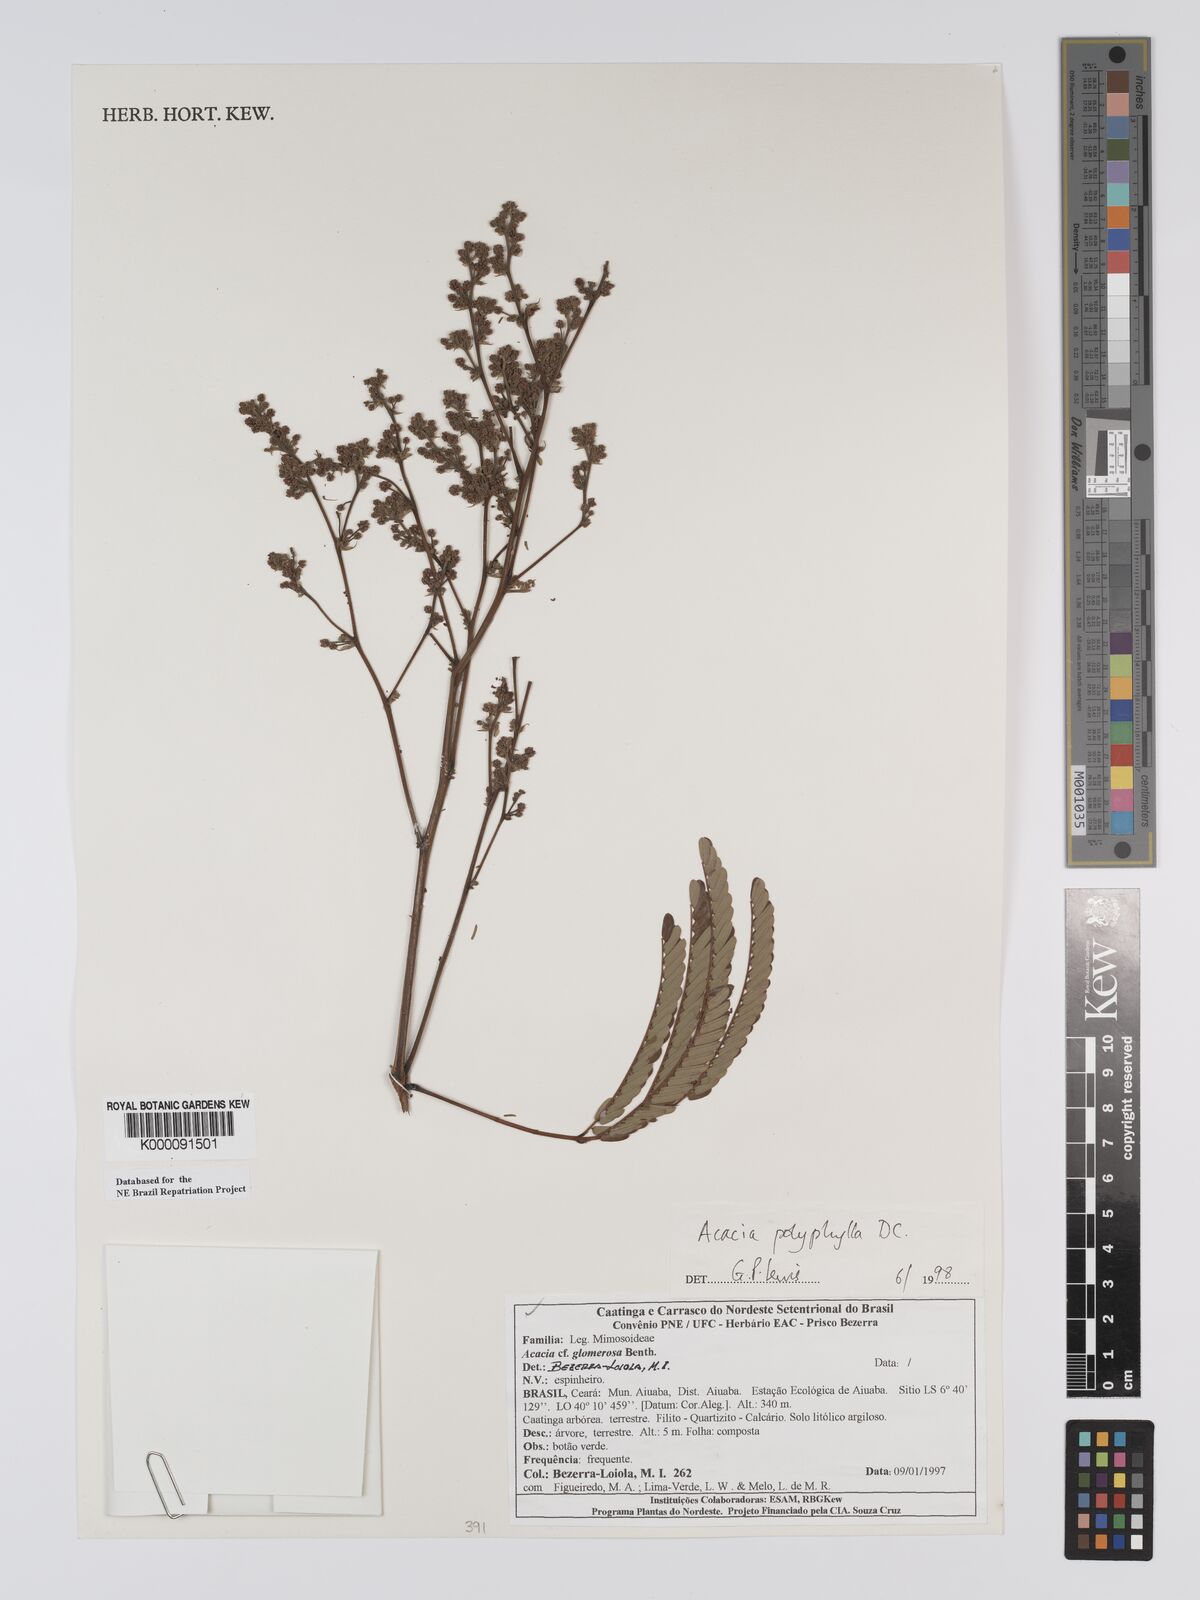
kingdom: Plantae
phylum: Tracheophyta
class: Magnoliopsida
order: Fabales
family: Fabaceae
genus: Senegalia
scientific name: Senegalia polyphylla
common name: White-tamarind
